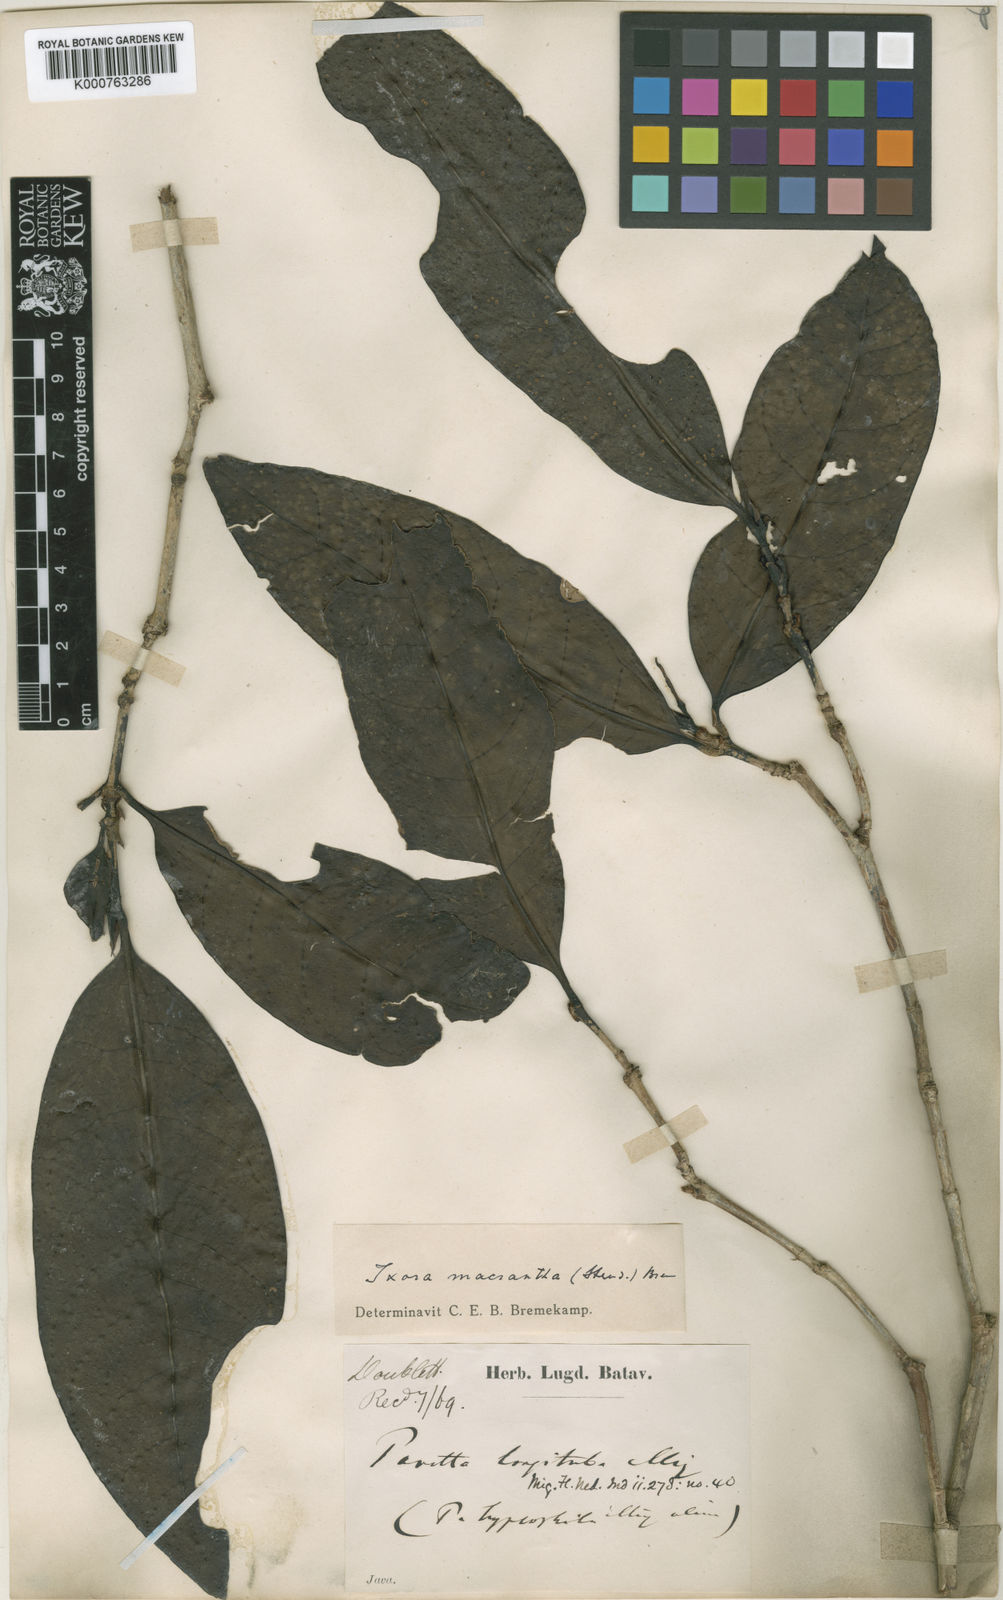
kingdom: Plantae
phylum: Tracheophyta
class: Magnoliopsida
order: Gentianales
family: Rubiaceae
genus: Ixora
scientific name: Ixora macrantha
